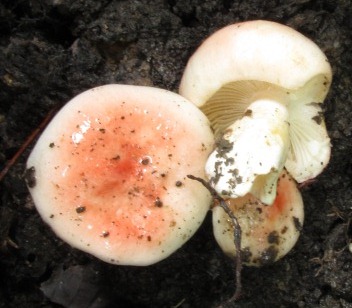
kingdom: Fungi
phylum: Basidiomycota
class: Agaricomycetes
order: Russulales
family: Russulaceae
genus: Russula
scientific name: Russula luteotacta
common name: gulplettet gift-skørhat
